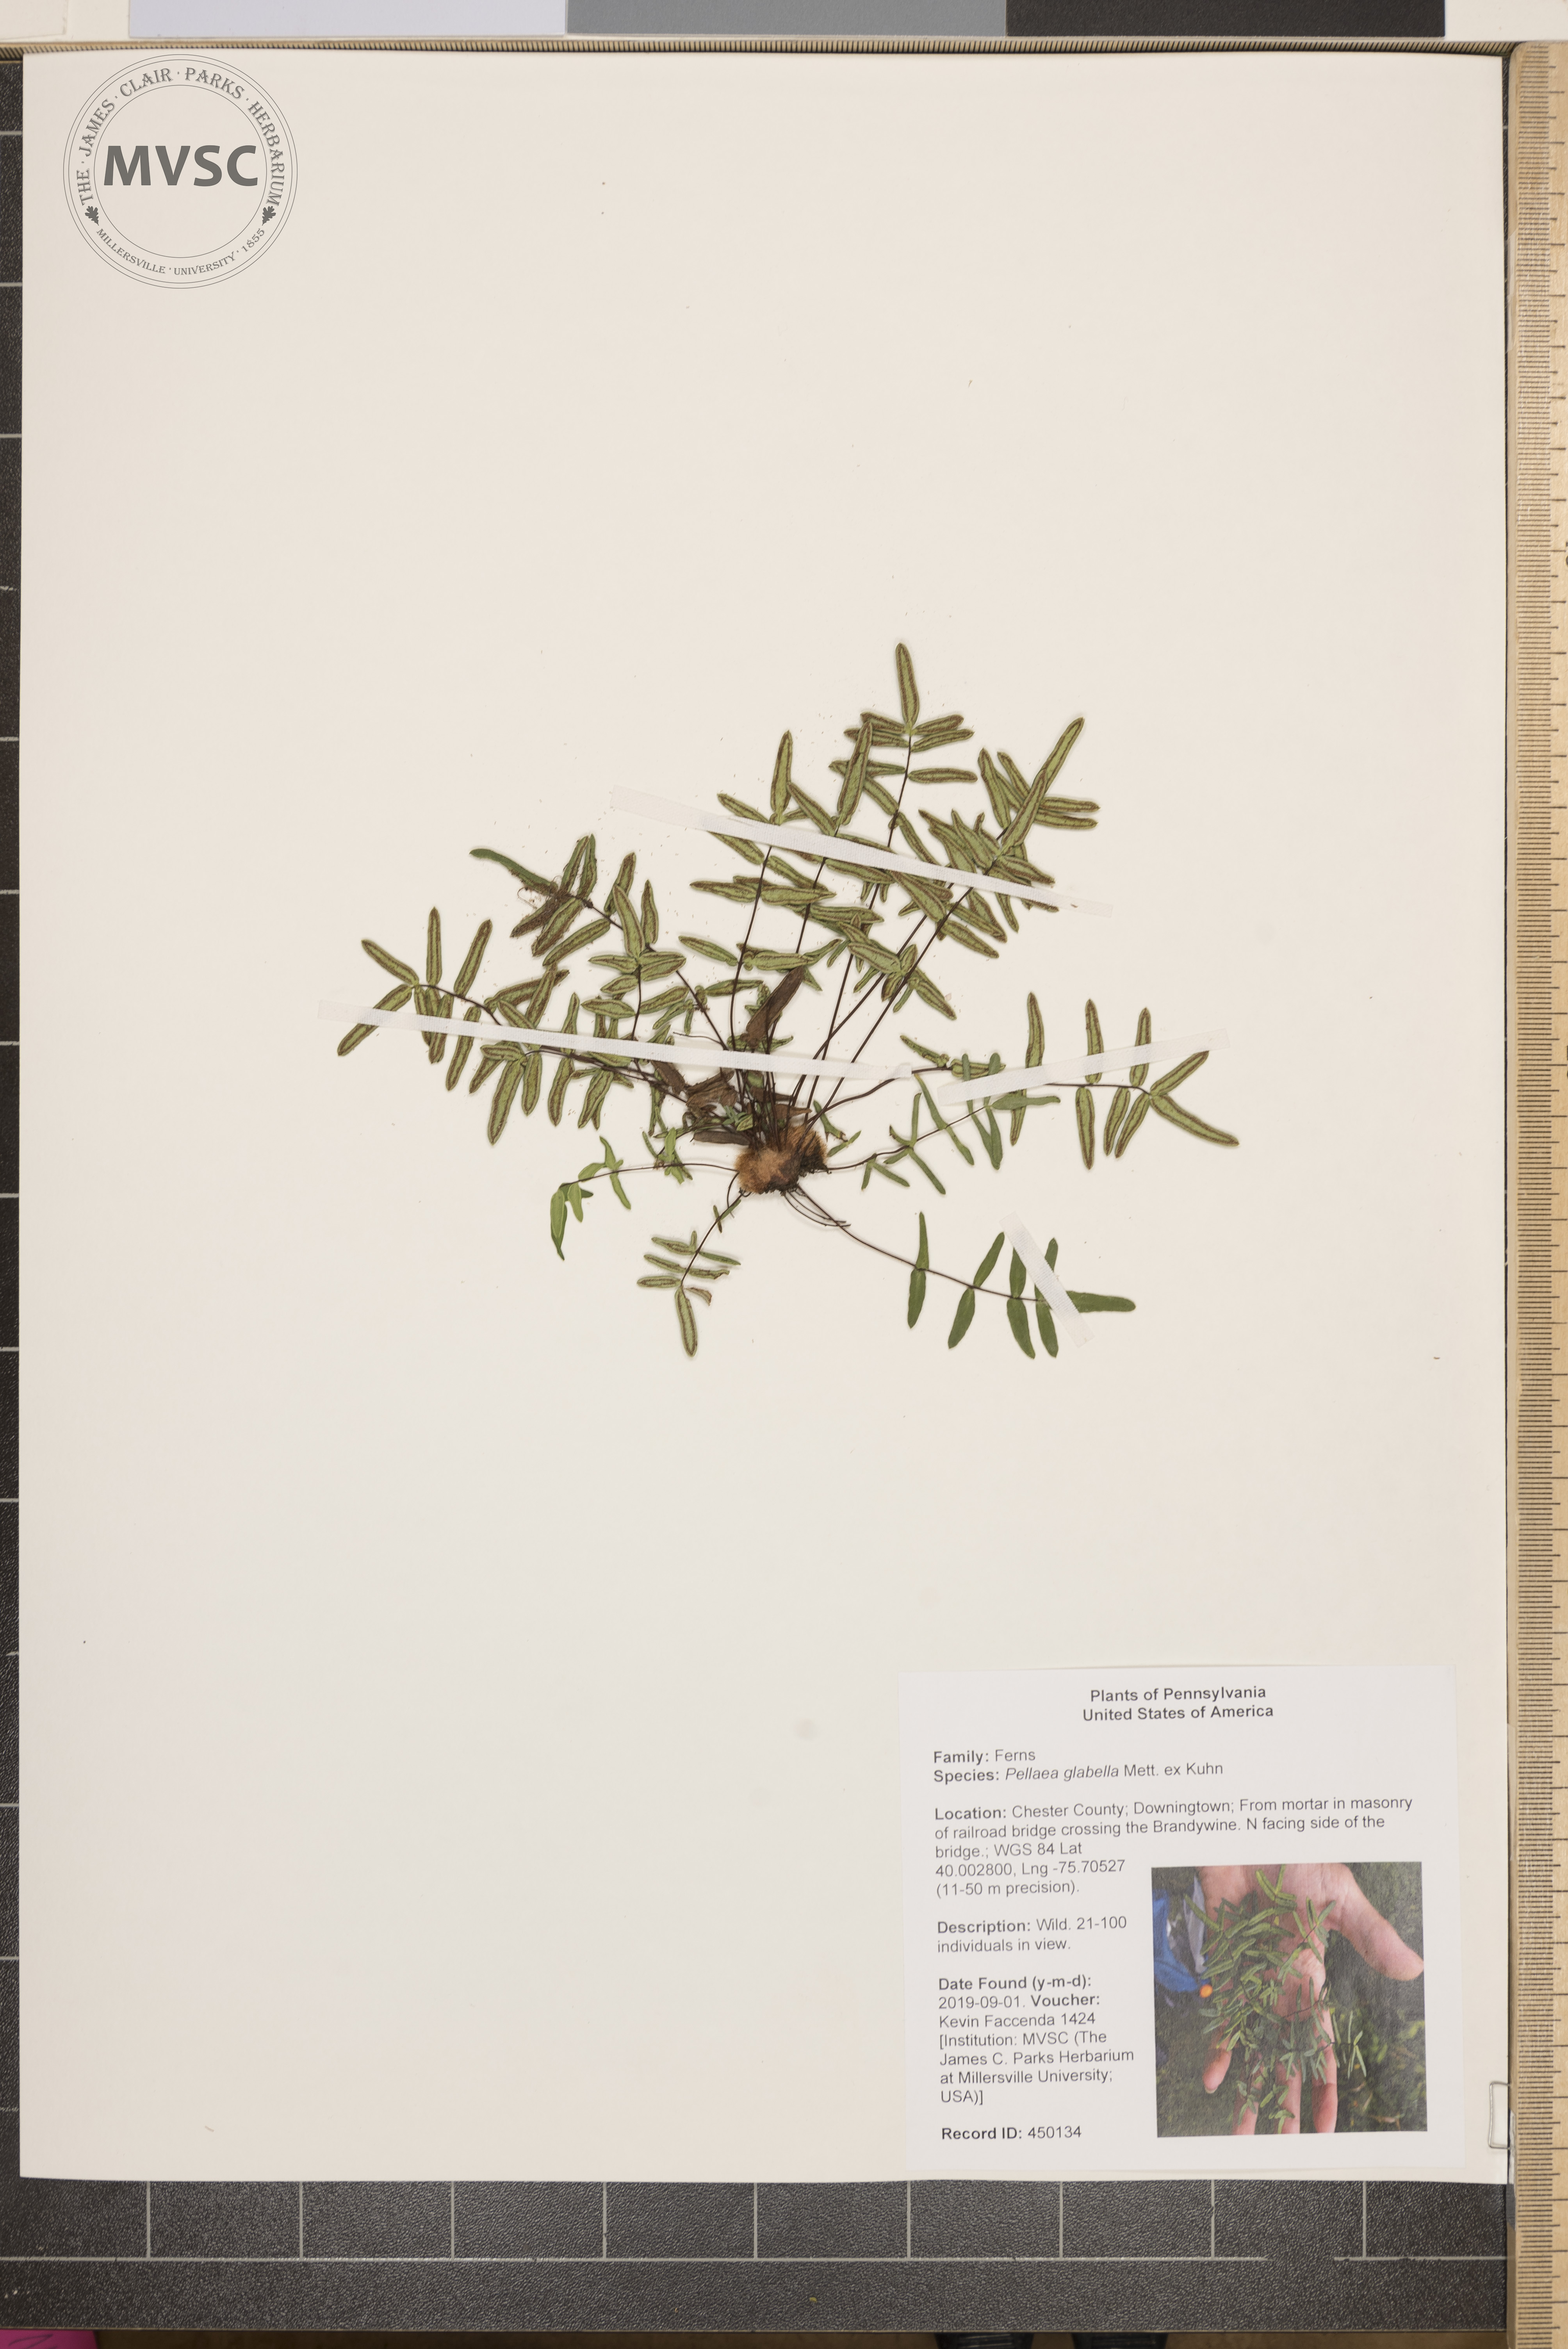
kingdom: Plantae
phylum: Tracheophyta
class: Polypodiopsida
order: Polypodiales
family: Pteridaceae
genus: Pellaea
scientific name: Pellaea glabella
